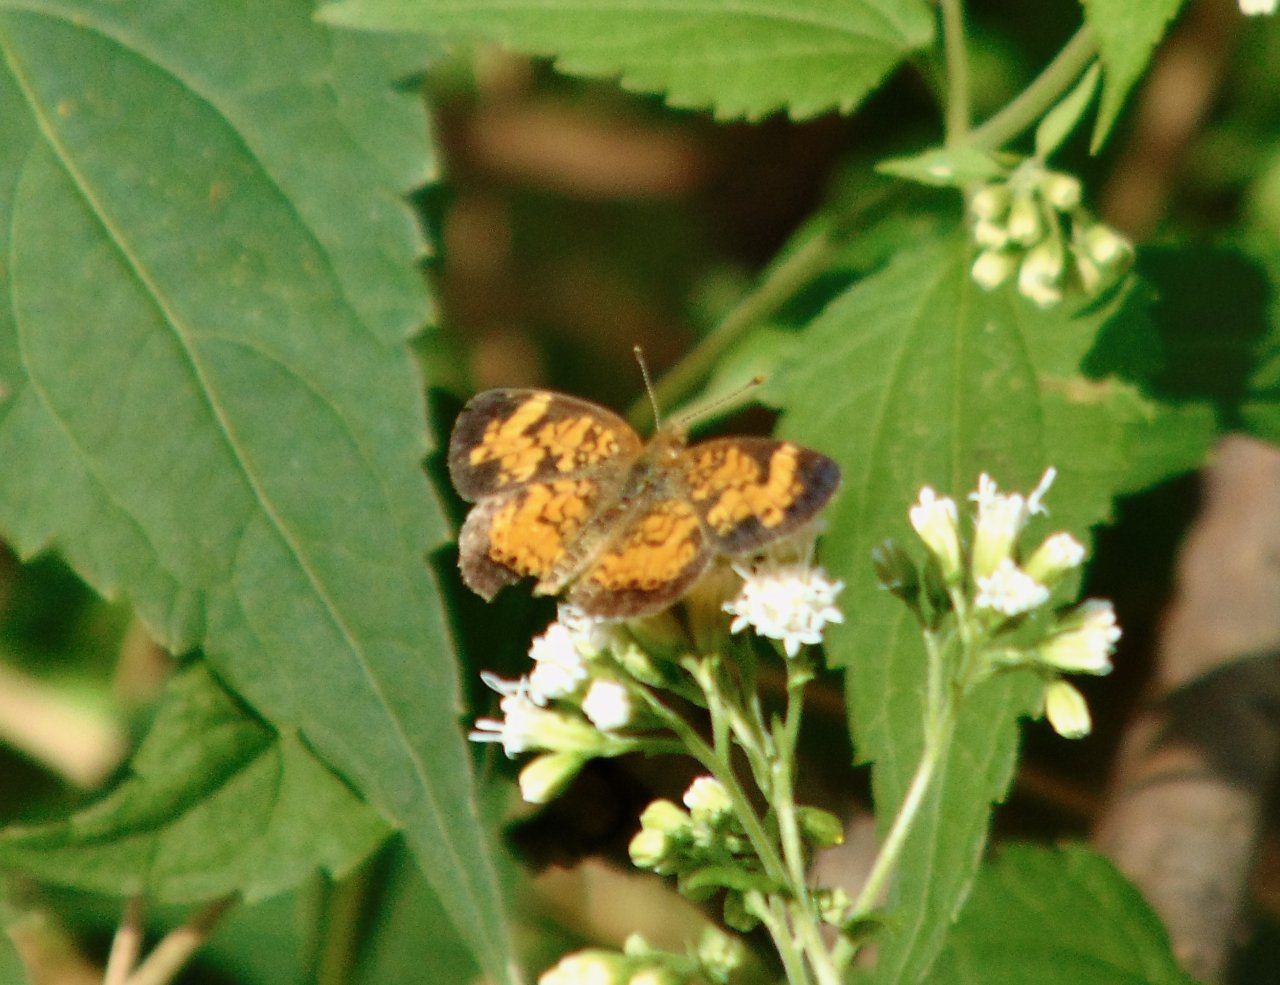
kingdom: Animalia
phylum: Arthropoda
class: Insecta
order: Lepidoptera
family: Nymphalidae
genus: Phyciodes
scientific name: Phyciodes tharos
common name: Pearl Crescent
